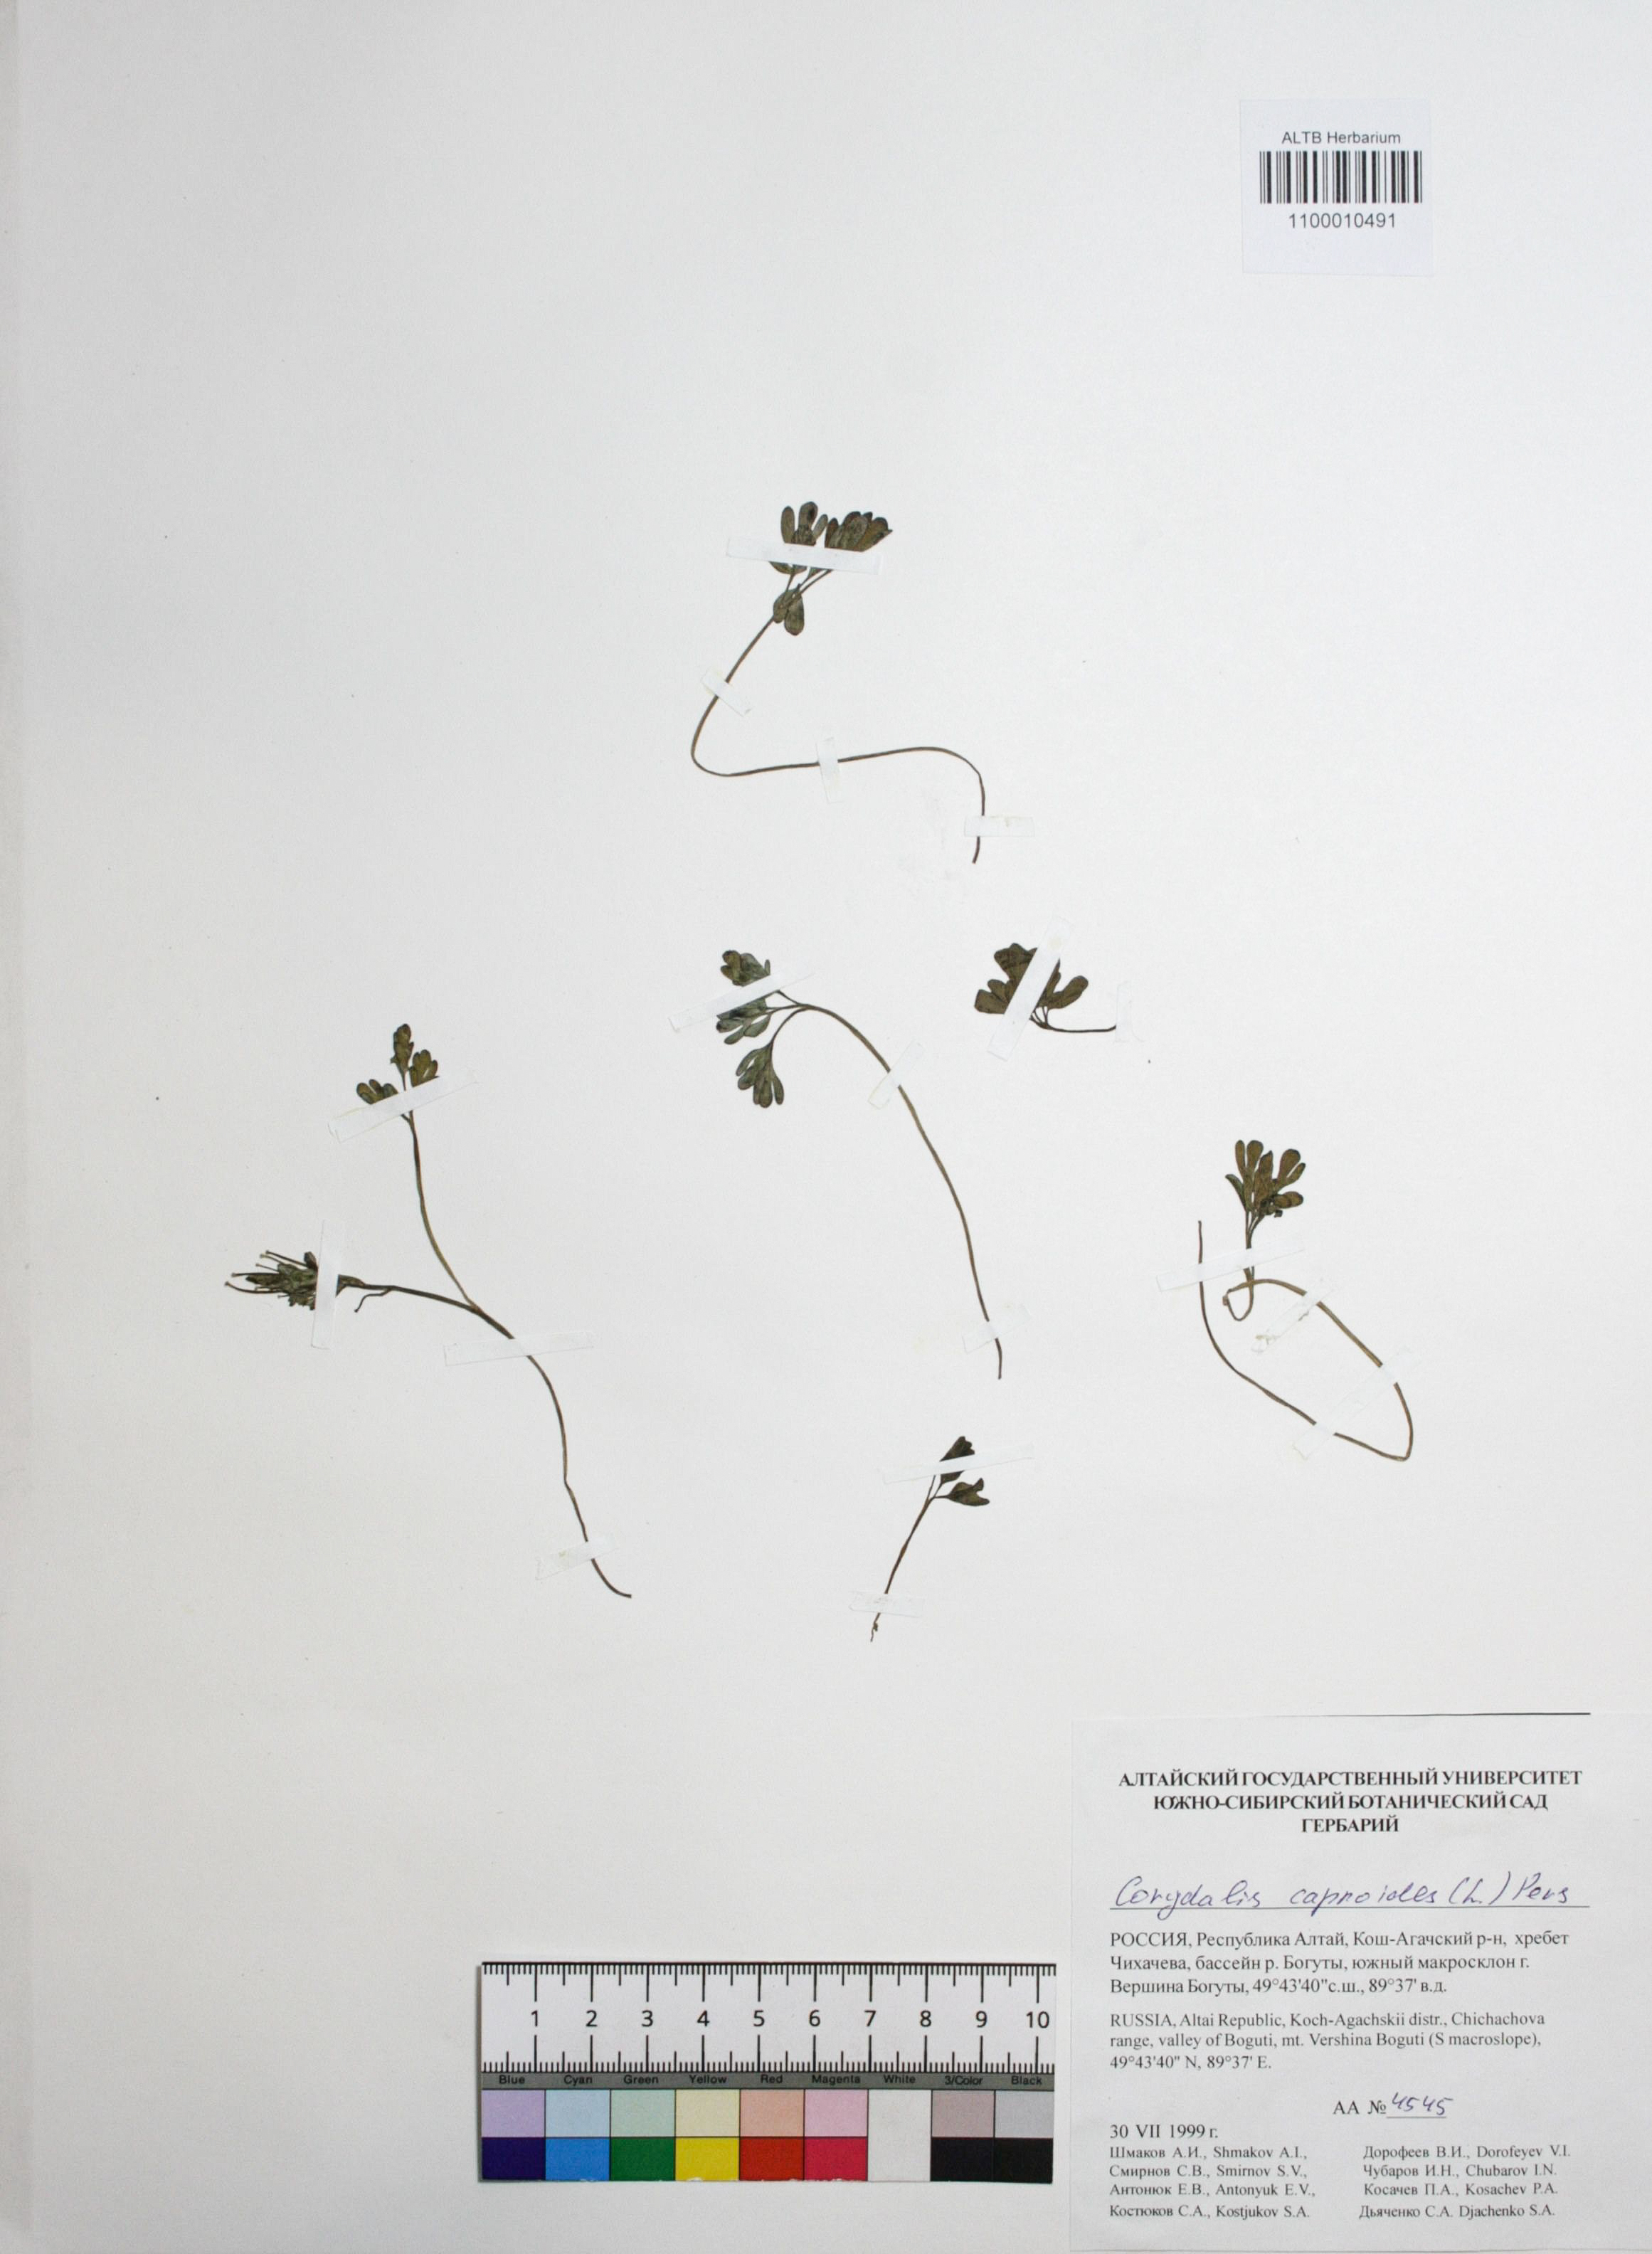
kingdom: Plantae
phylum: Tracheophyta
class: Magnoliopsida
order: Ranunculales
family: Papaveraceae
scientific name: Papaveraceae
